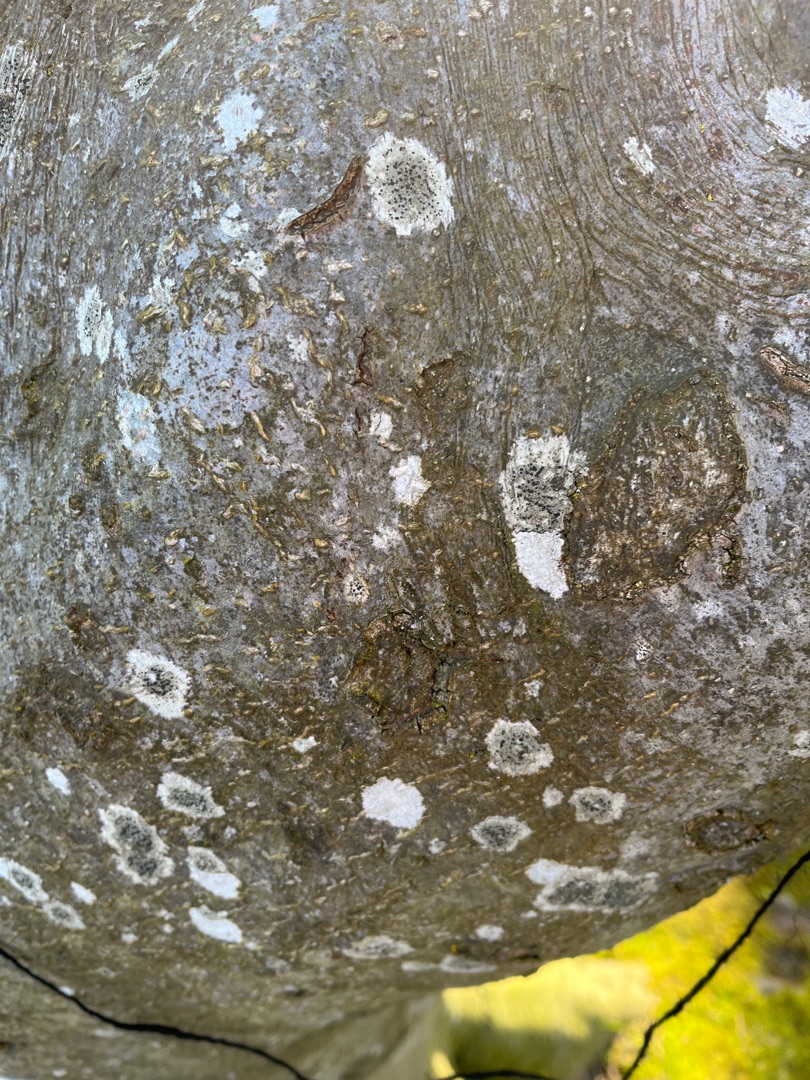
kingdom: Fungi
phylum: Ascomycota
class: Lecanoromycetes
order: Lecanorales
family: Lecanoraceae
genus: Lecidella
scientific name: Lecidella elaeochroma
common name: Grågrøn skivelav
